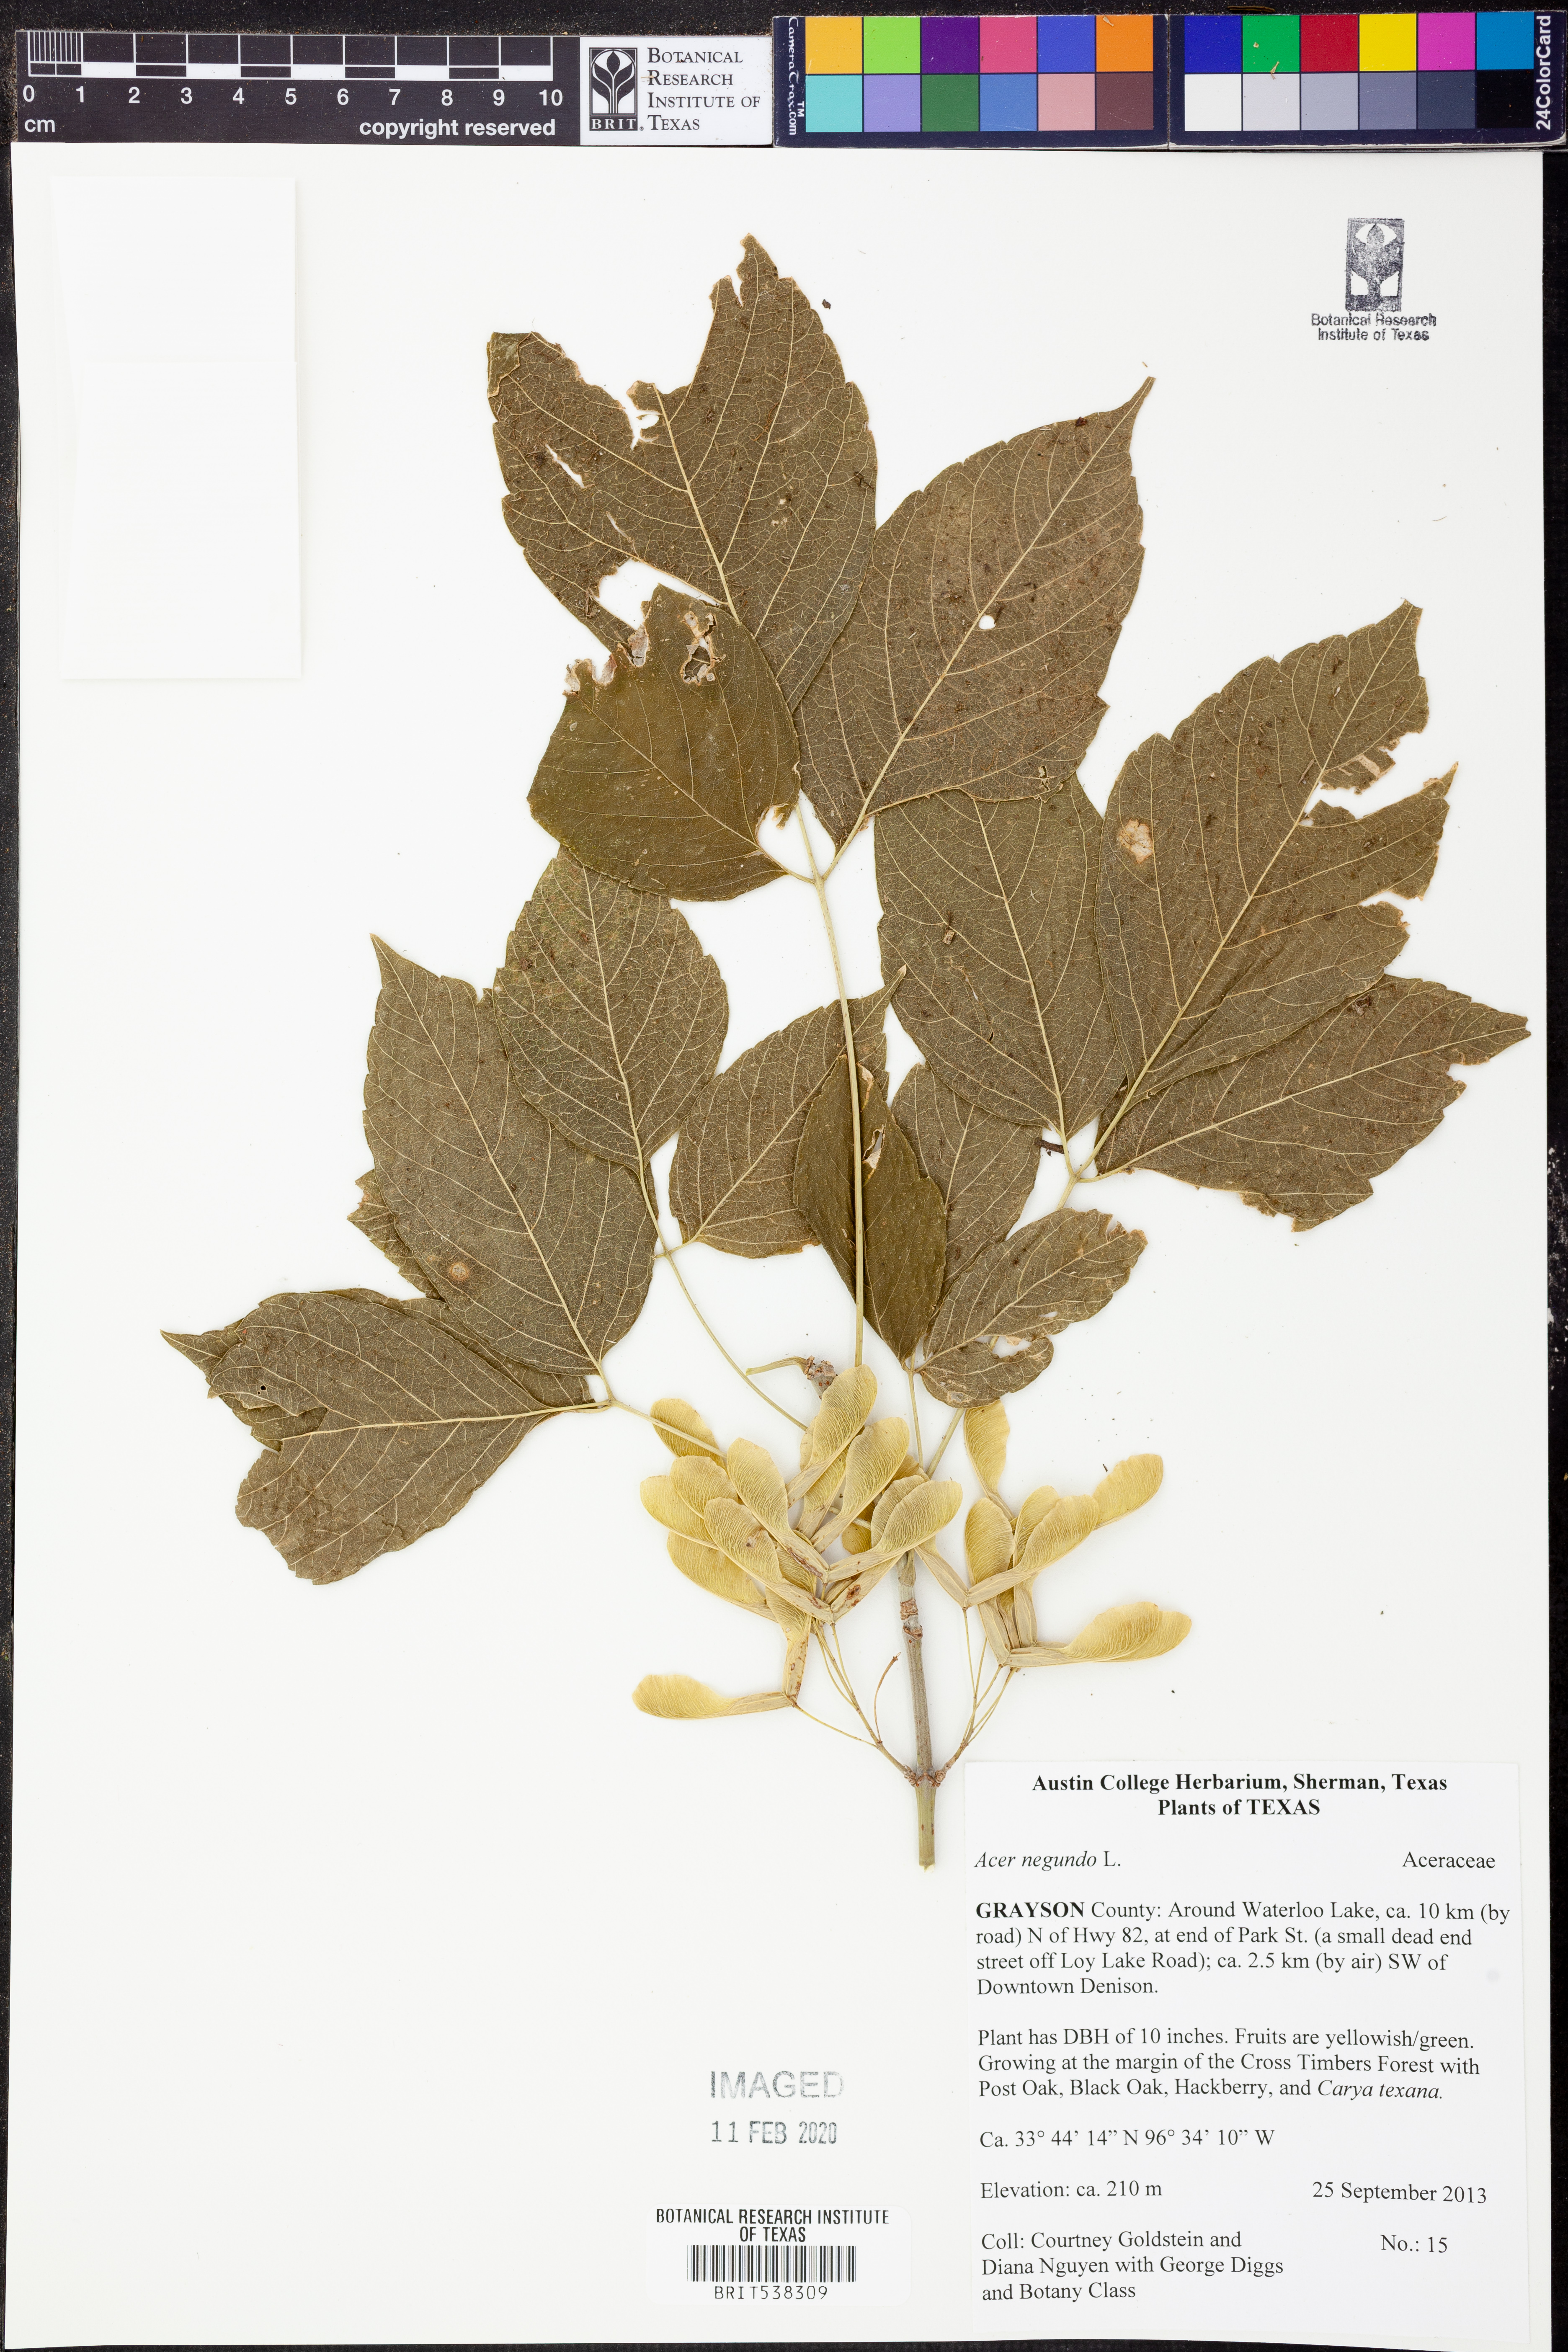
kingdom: Plantae
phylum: Tracheophyta
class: Magnoliopsida
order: Sapindales
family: Sapindaceae
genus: Acer
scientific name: Acer negundo
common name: Ashleaf maple
